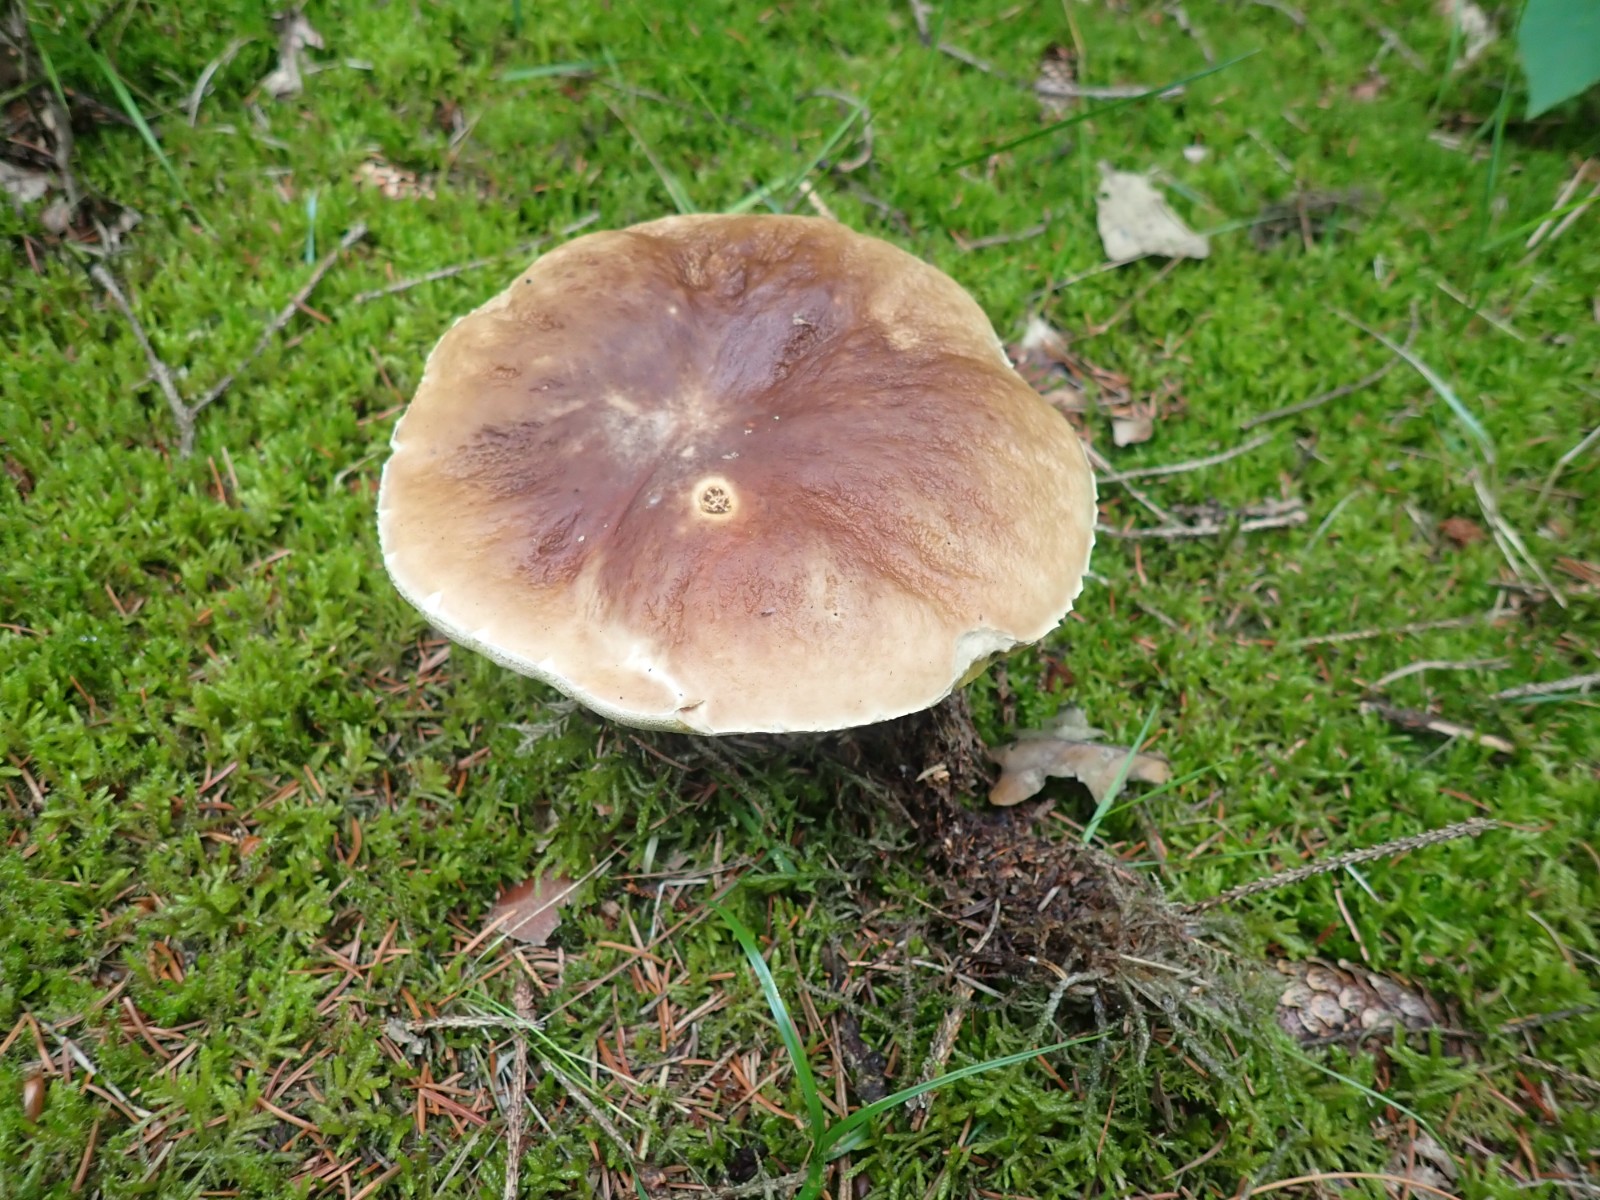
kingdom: Fungi
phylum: Basidiomycota
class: Agaricomycetes
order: Boletales
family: Boletaceae
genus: Boletus
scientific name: Boletus edulis
